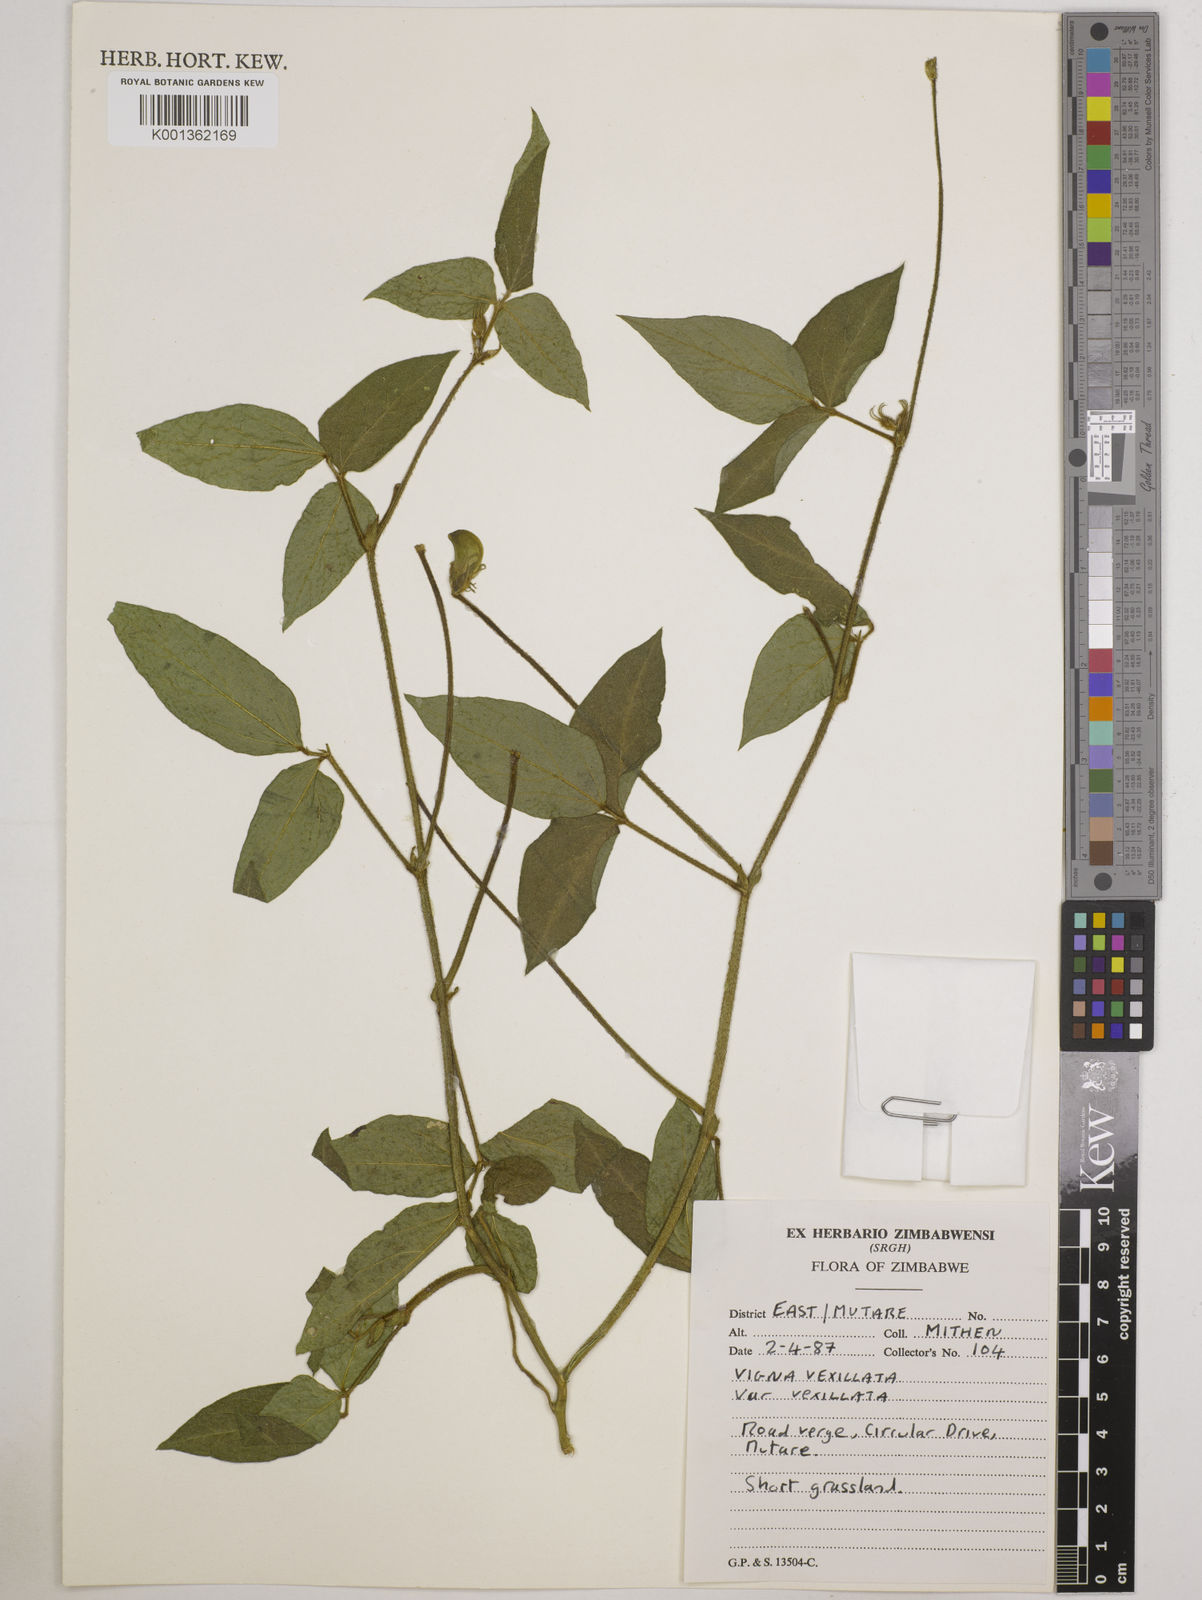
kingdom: Plantae
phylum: Tracheophyta
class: Magnoliopsida
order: Fabales
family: Fabaceae
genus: Vigna
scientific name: Vigna vexillata
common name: Zombi pea
